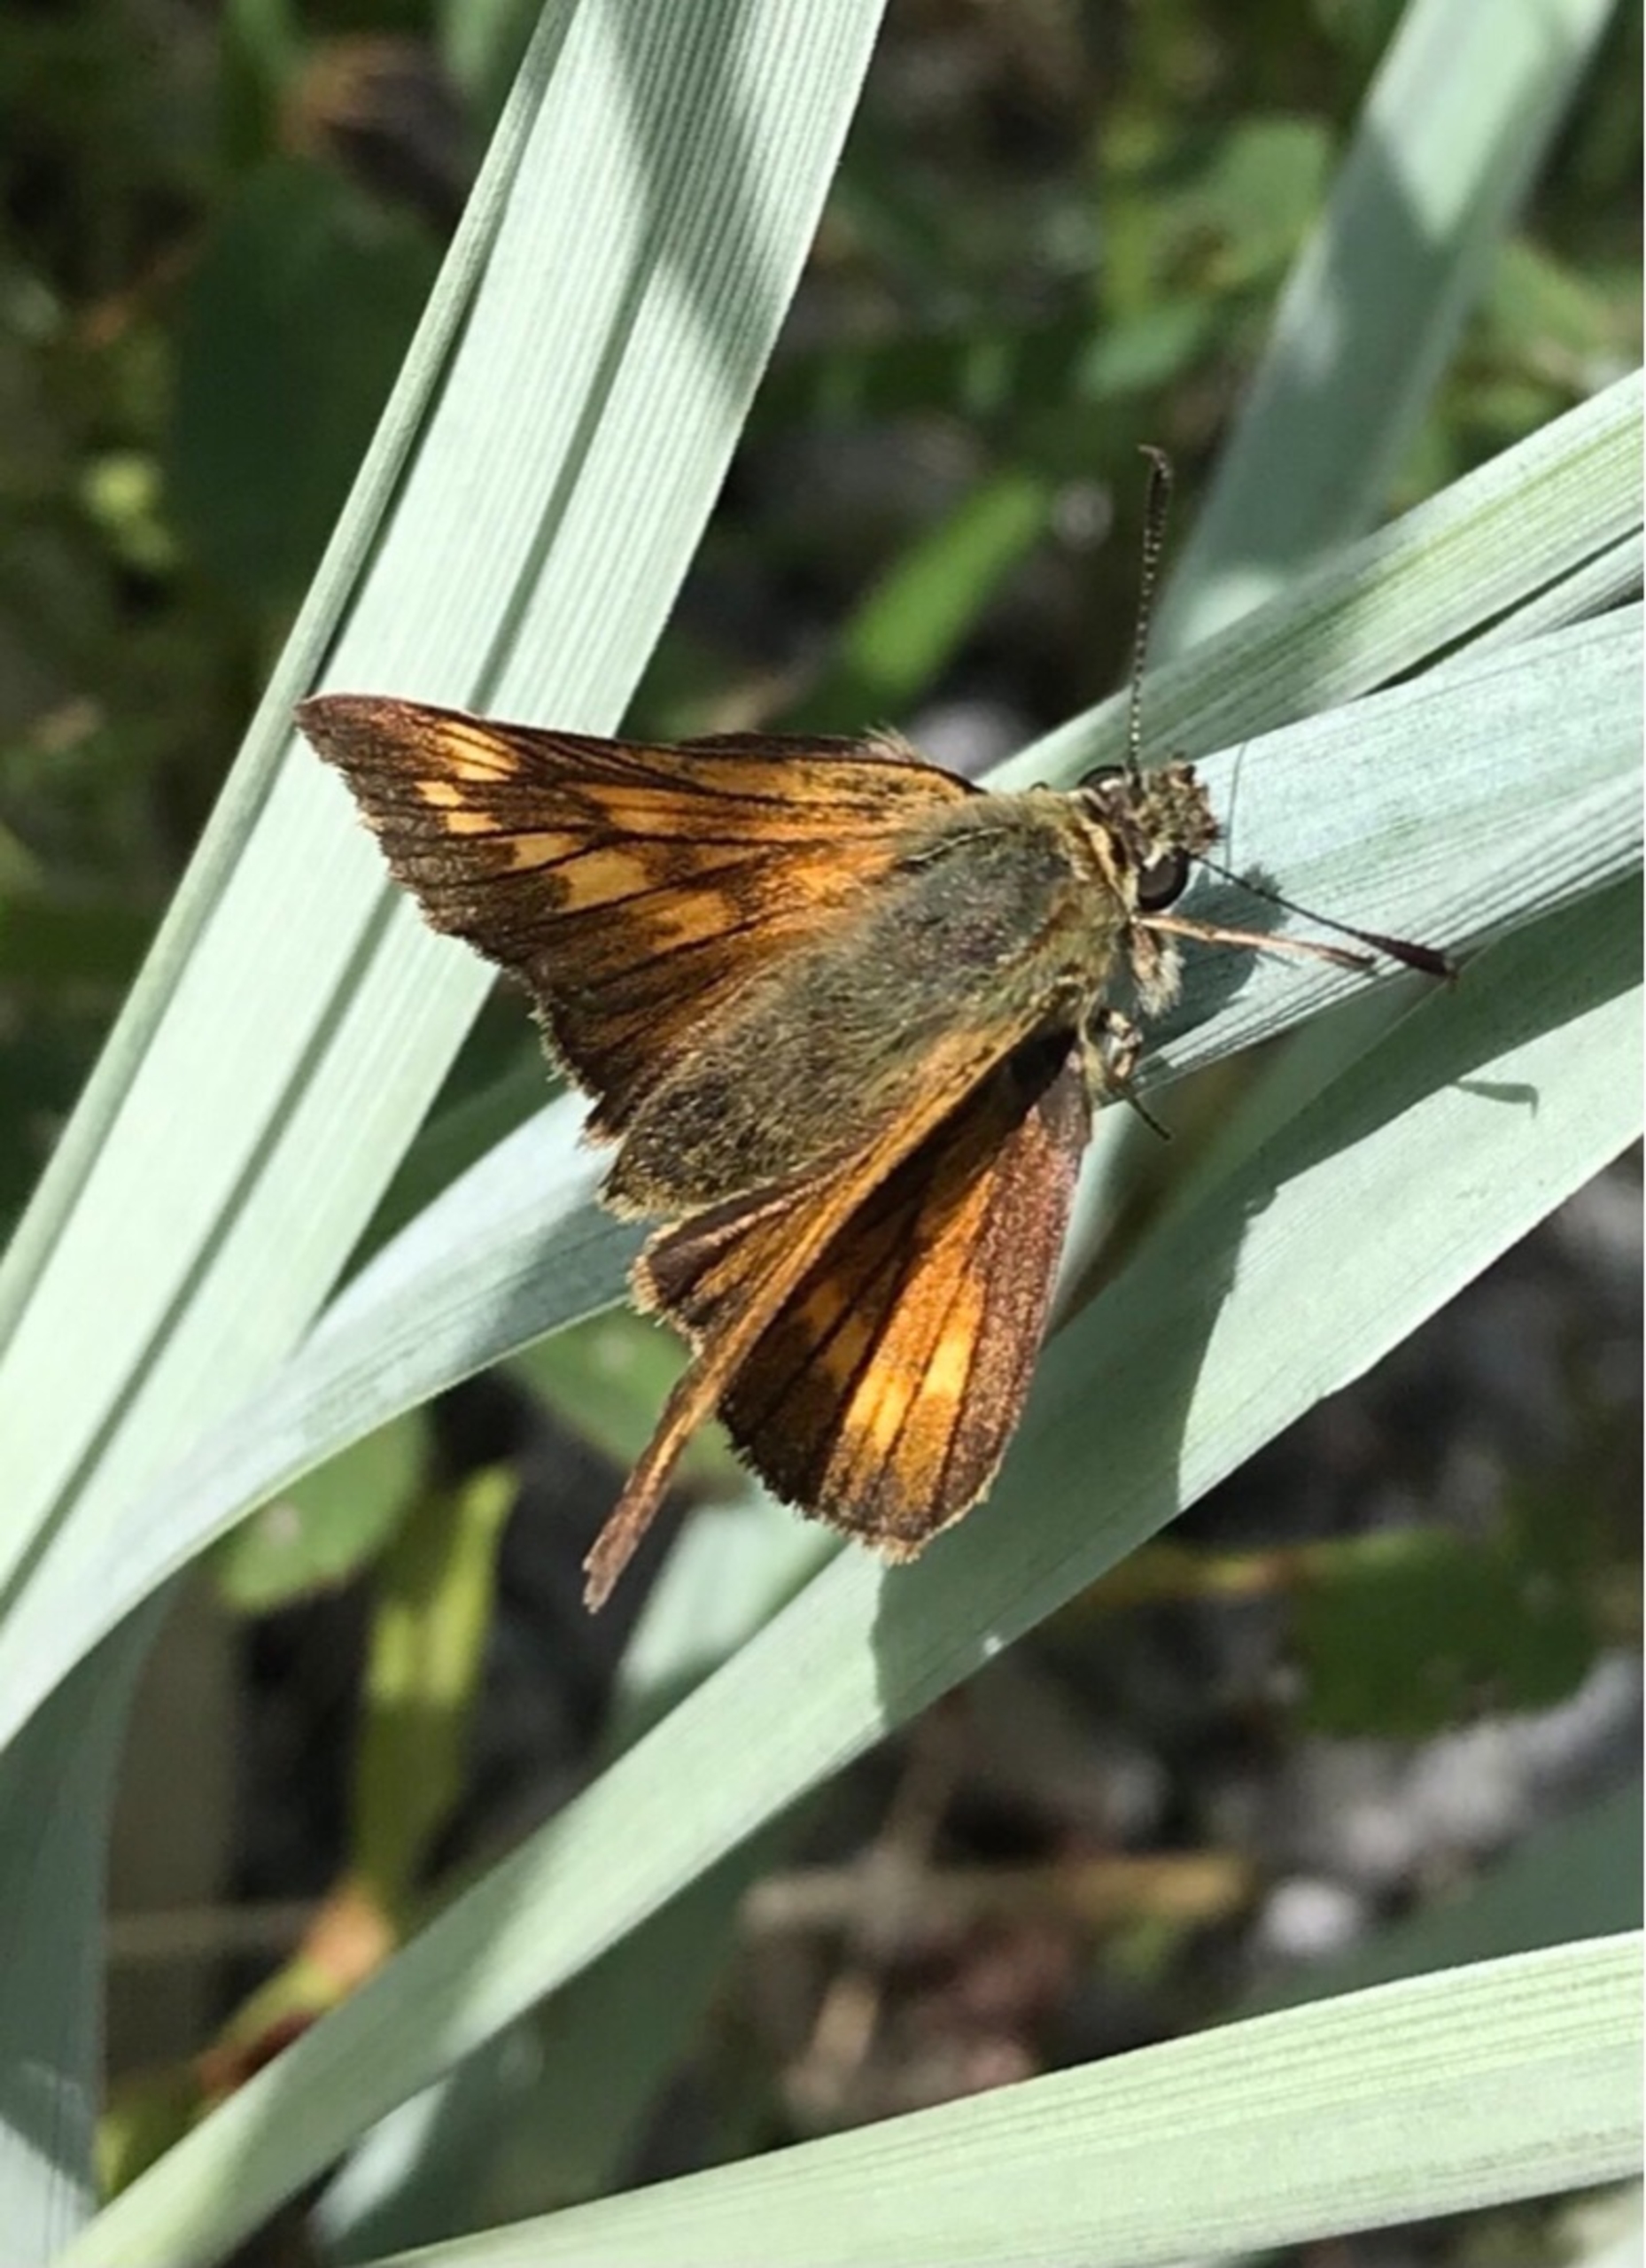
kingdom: Animalia
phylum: Arthropoda
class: Insecta
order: Lepidoptera
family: Hesperiidae
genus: Ochlodes
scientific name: Ochlodes venata
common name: Stor bredpande
